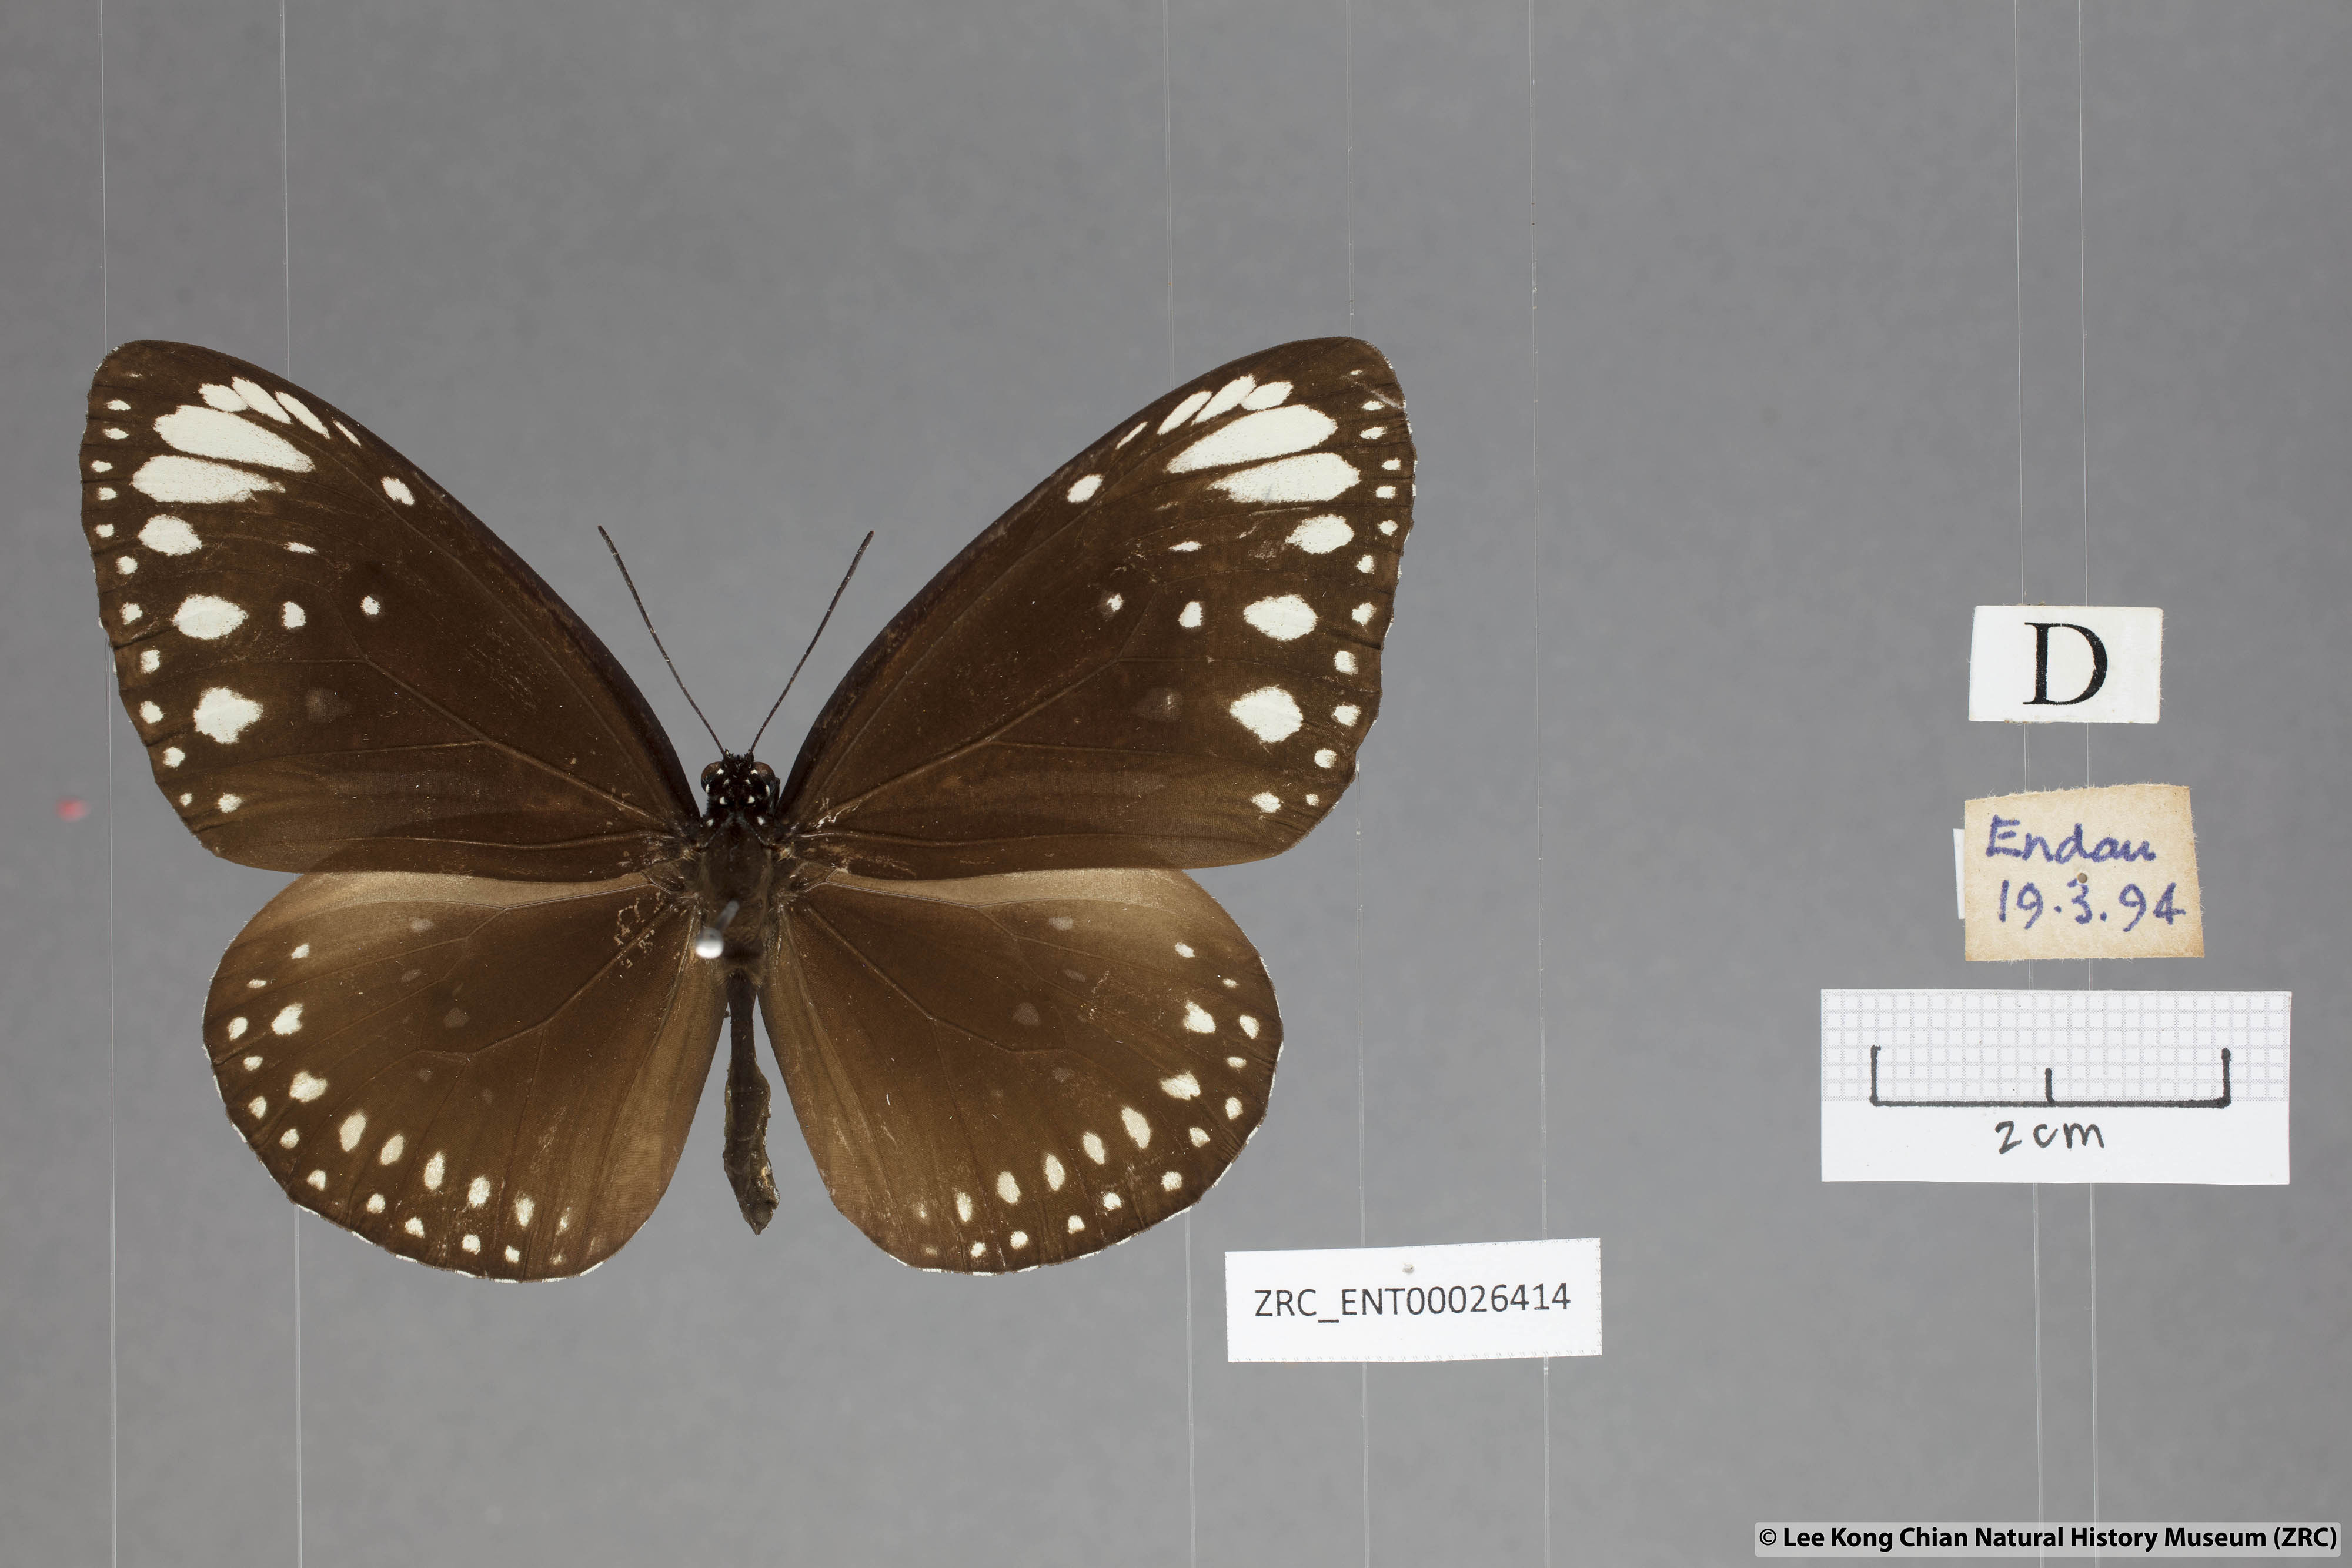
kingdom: Animalia
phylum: Arthropoda
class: Insecta
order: Lepidoptera
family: Nymphalidae
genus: Euploea
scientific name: Euploea core
